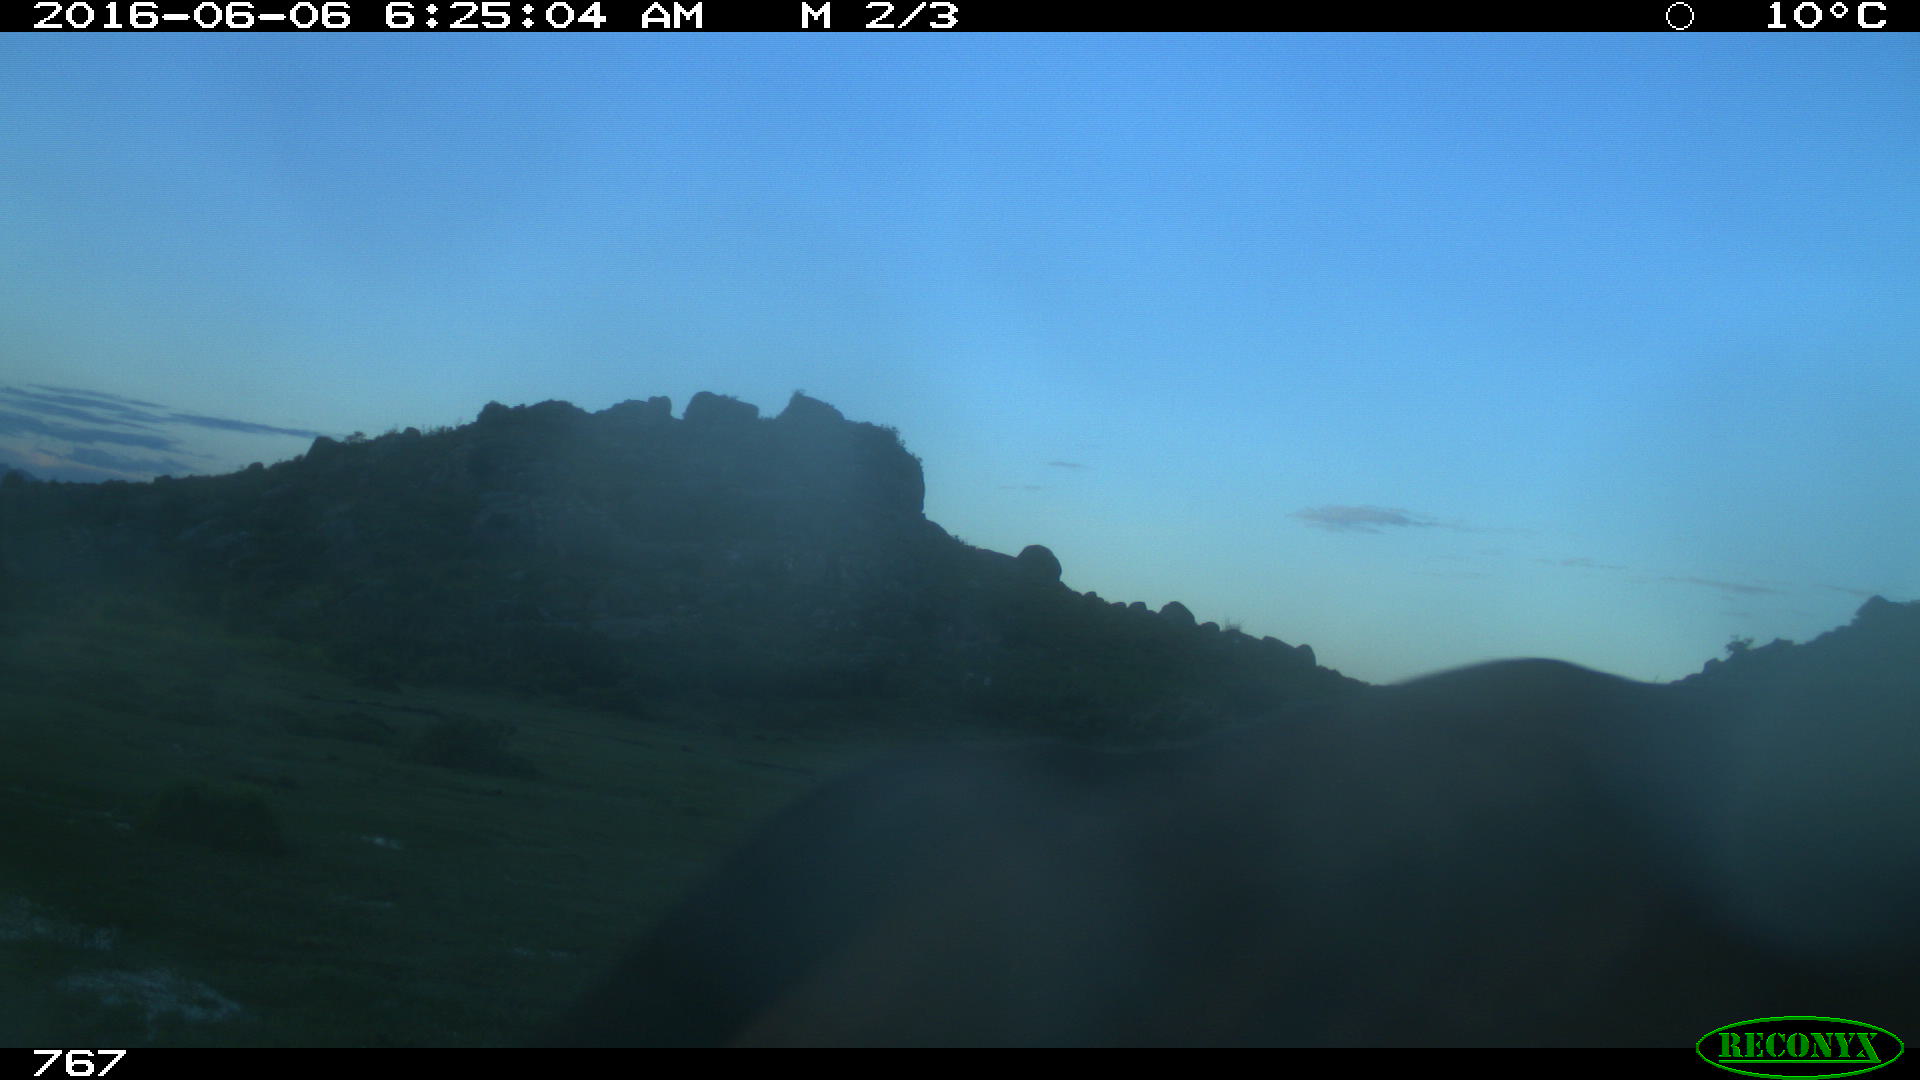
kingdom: Animalia
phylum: Chordata
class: Mammalia
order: Perissodactyla
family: Equidae
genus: Equus
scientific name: Equus caballus
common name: Horse
